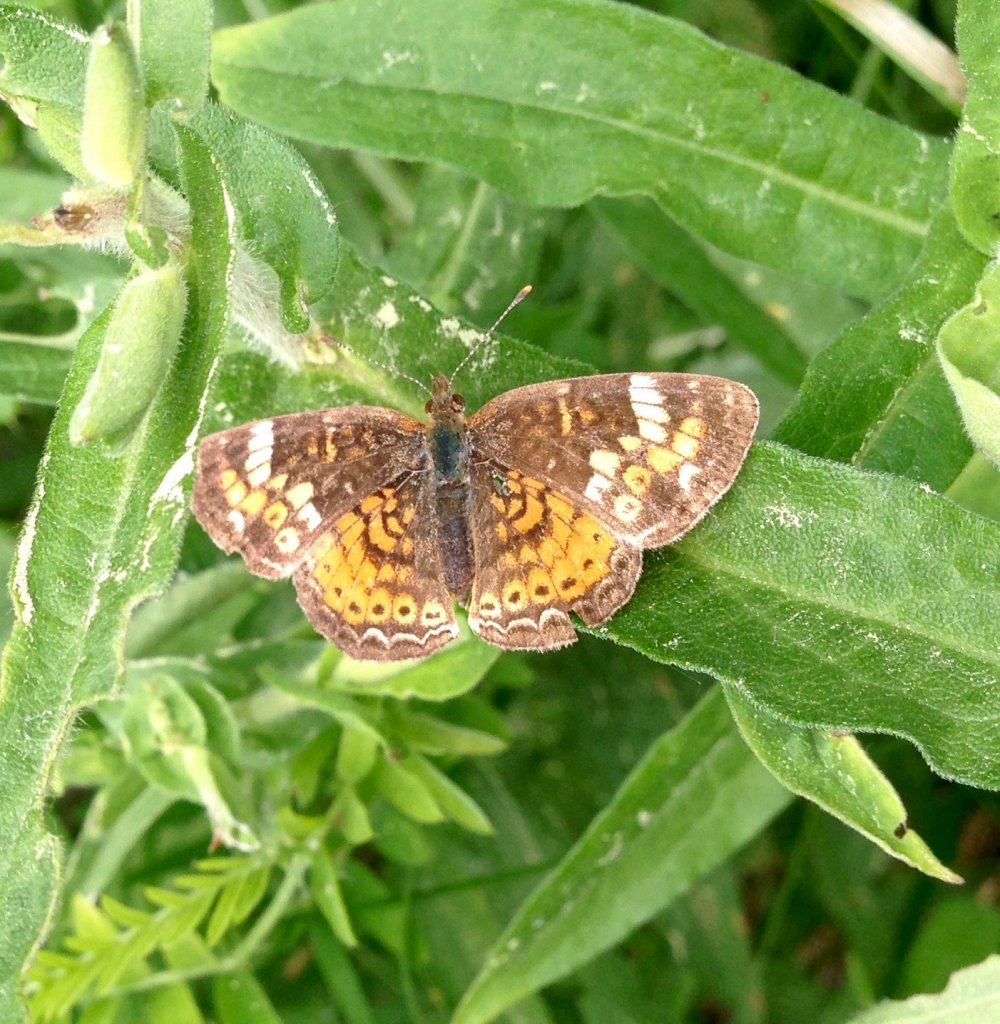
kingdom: Animalia
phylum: Arthropoda
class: Insecta
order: Lepidoptera
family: Nymphalidae
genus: Phyciodes
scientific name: Phyciodes tharos
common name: Northern Crescent
